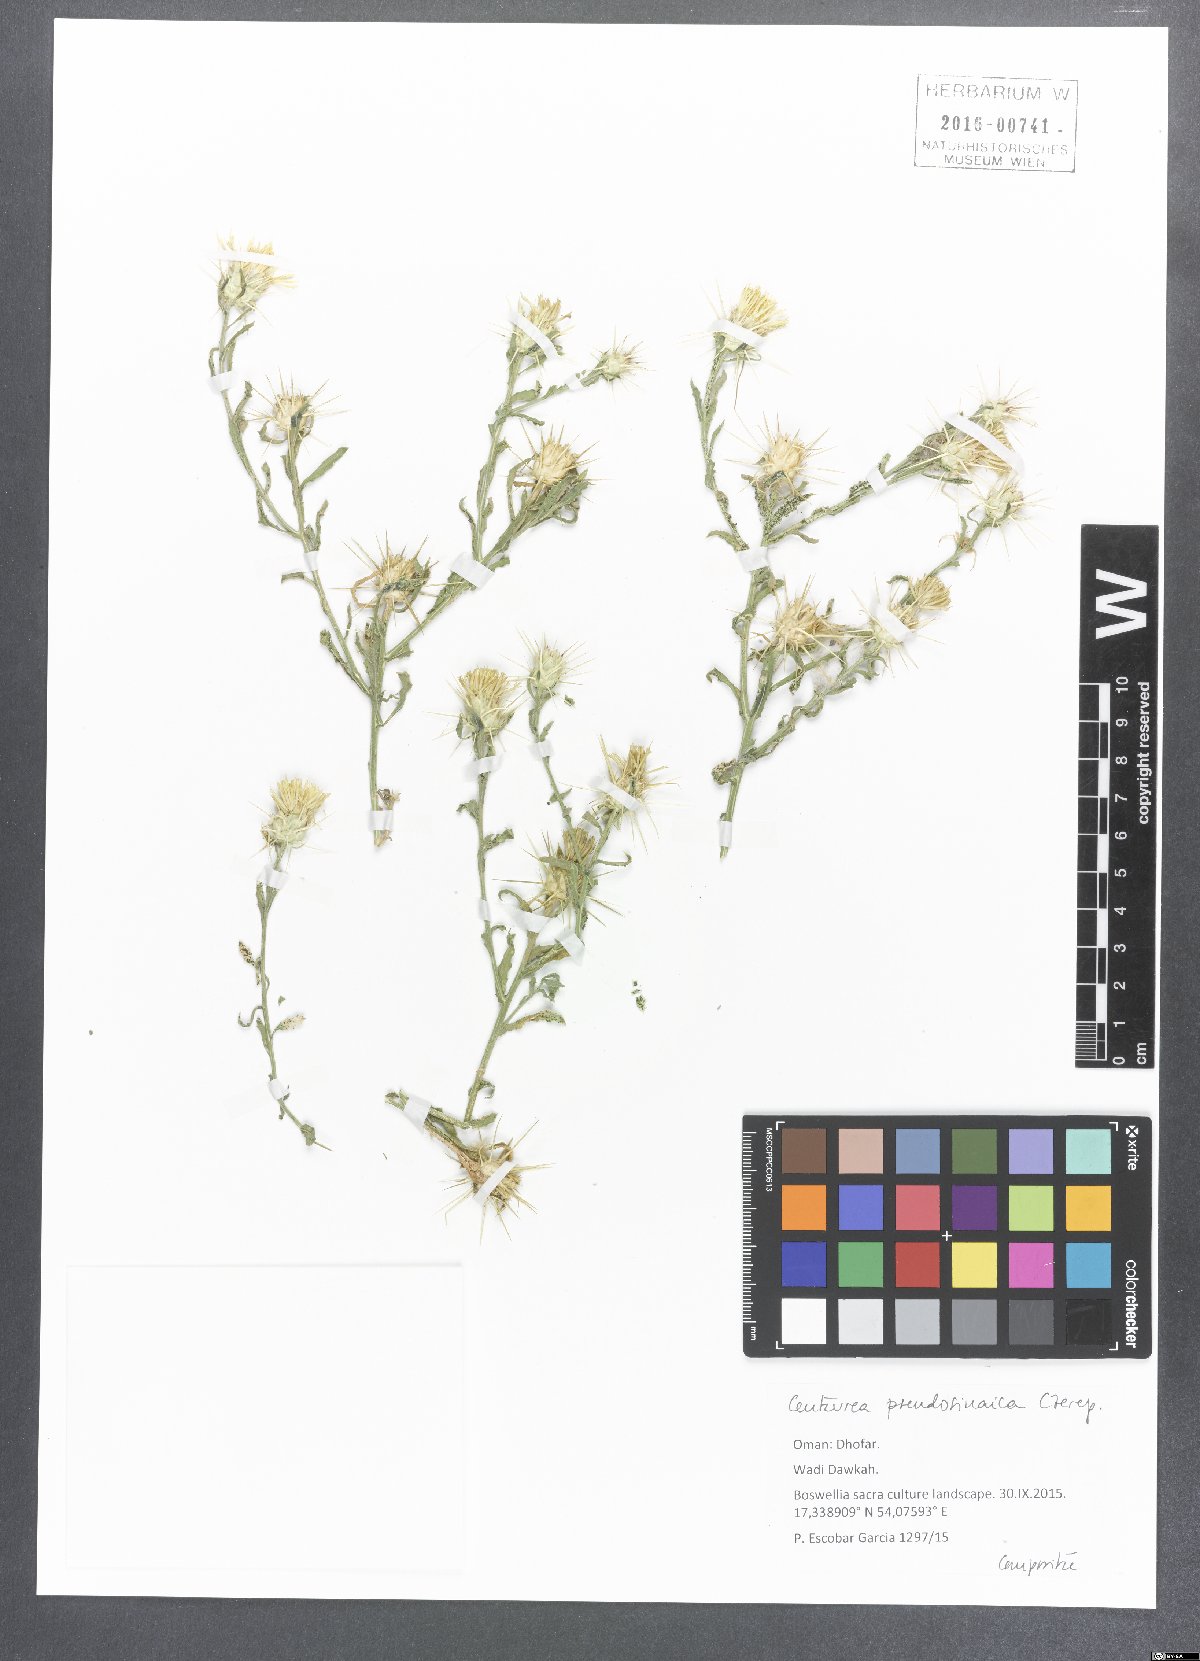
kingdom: Plantae
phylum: Tracheophyta
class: Magnoliopsida
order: Asterales
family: Asteraceae
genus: Centaurea
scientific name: Centaurea pseudosinaica
